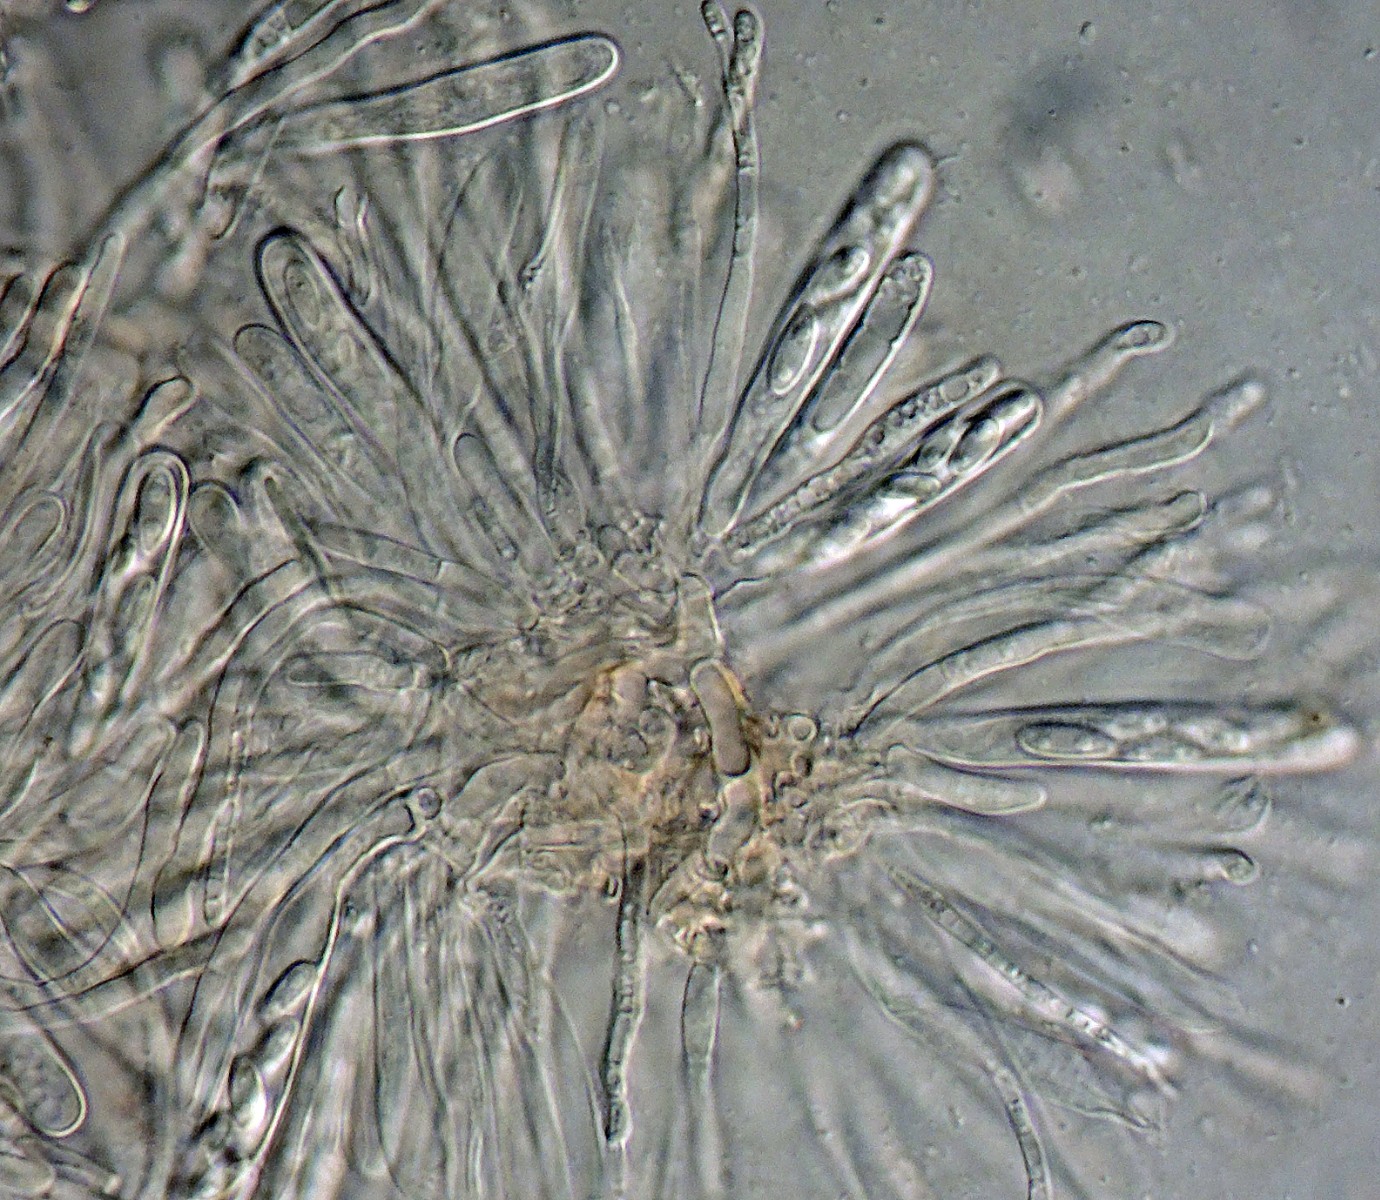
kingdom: Fungi
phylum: Ascomycota
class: Leotiomycetes
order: Helotiales
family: Hyaloscyphaceae
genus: Unguiculella
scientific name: Unguiculella robergei
